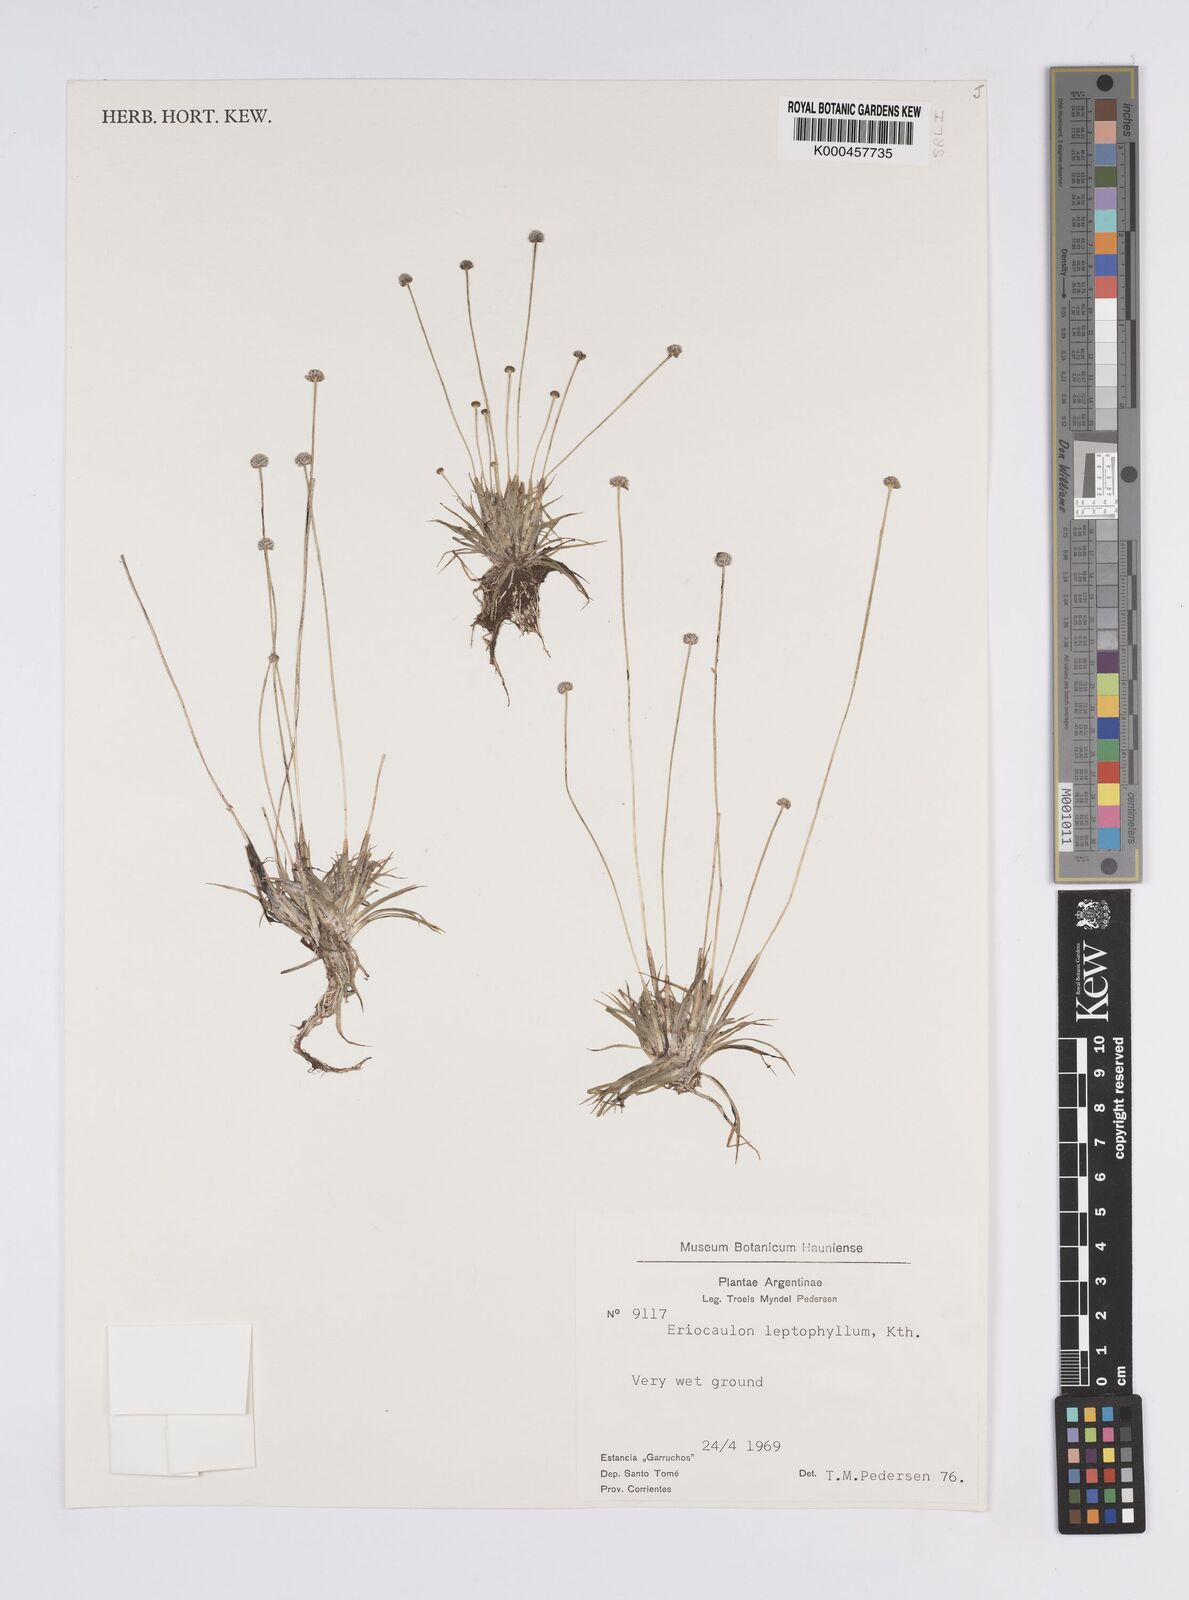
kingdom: Plantae
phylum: Tracheophyta
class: Liliopsida
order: Poales
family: Eriocaulaceae
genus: Eriocaulon
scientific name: Eriocaulon leptophyllum
